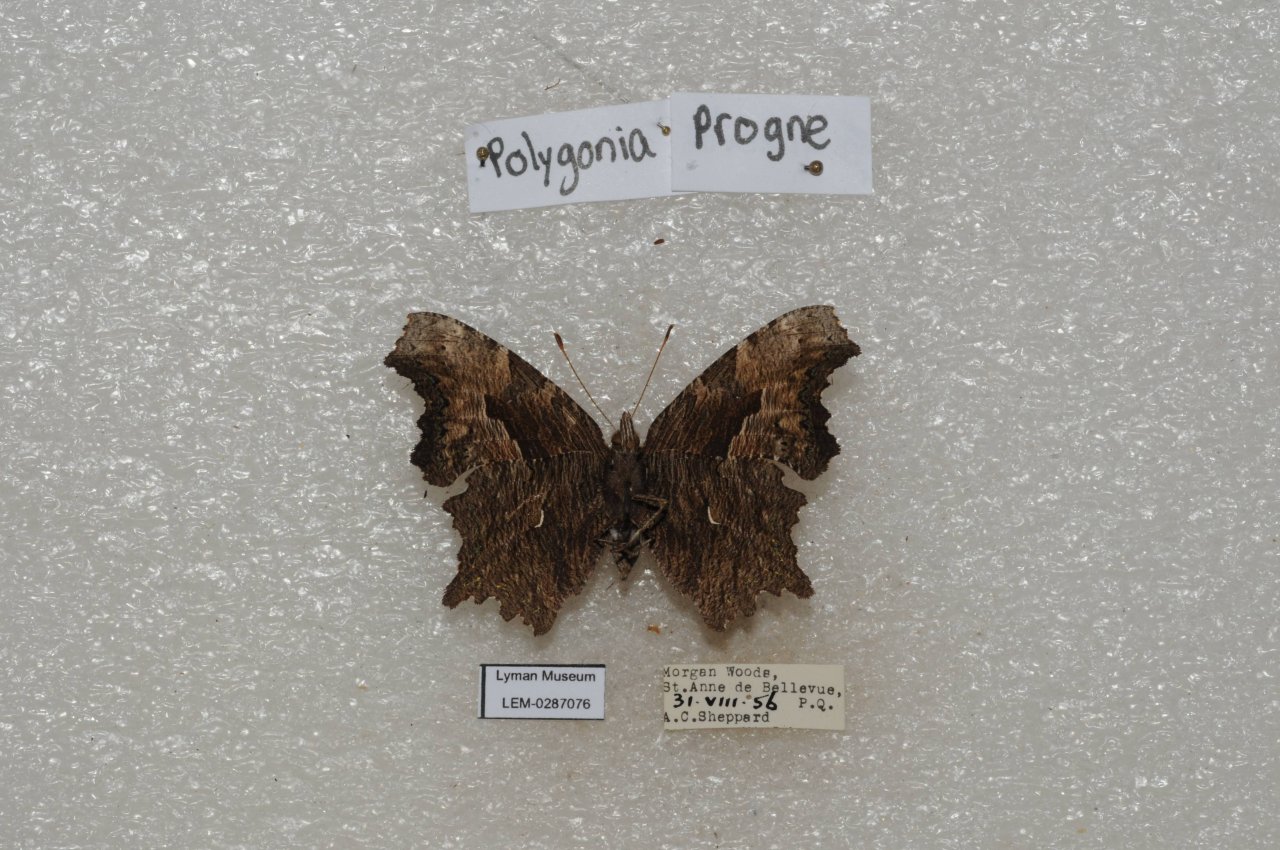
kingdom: Animalia
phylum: Arthropoda
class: Insecta
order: Lepidoptera
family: Nymphalidae
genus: Polygonia
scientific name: Polygonia progne
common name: Gray Comma
